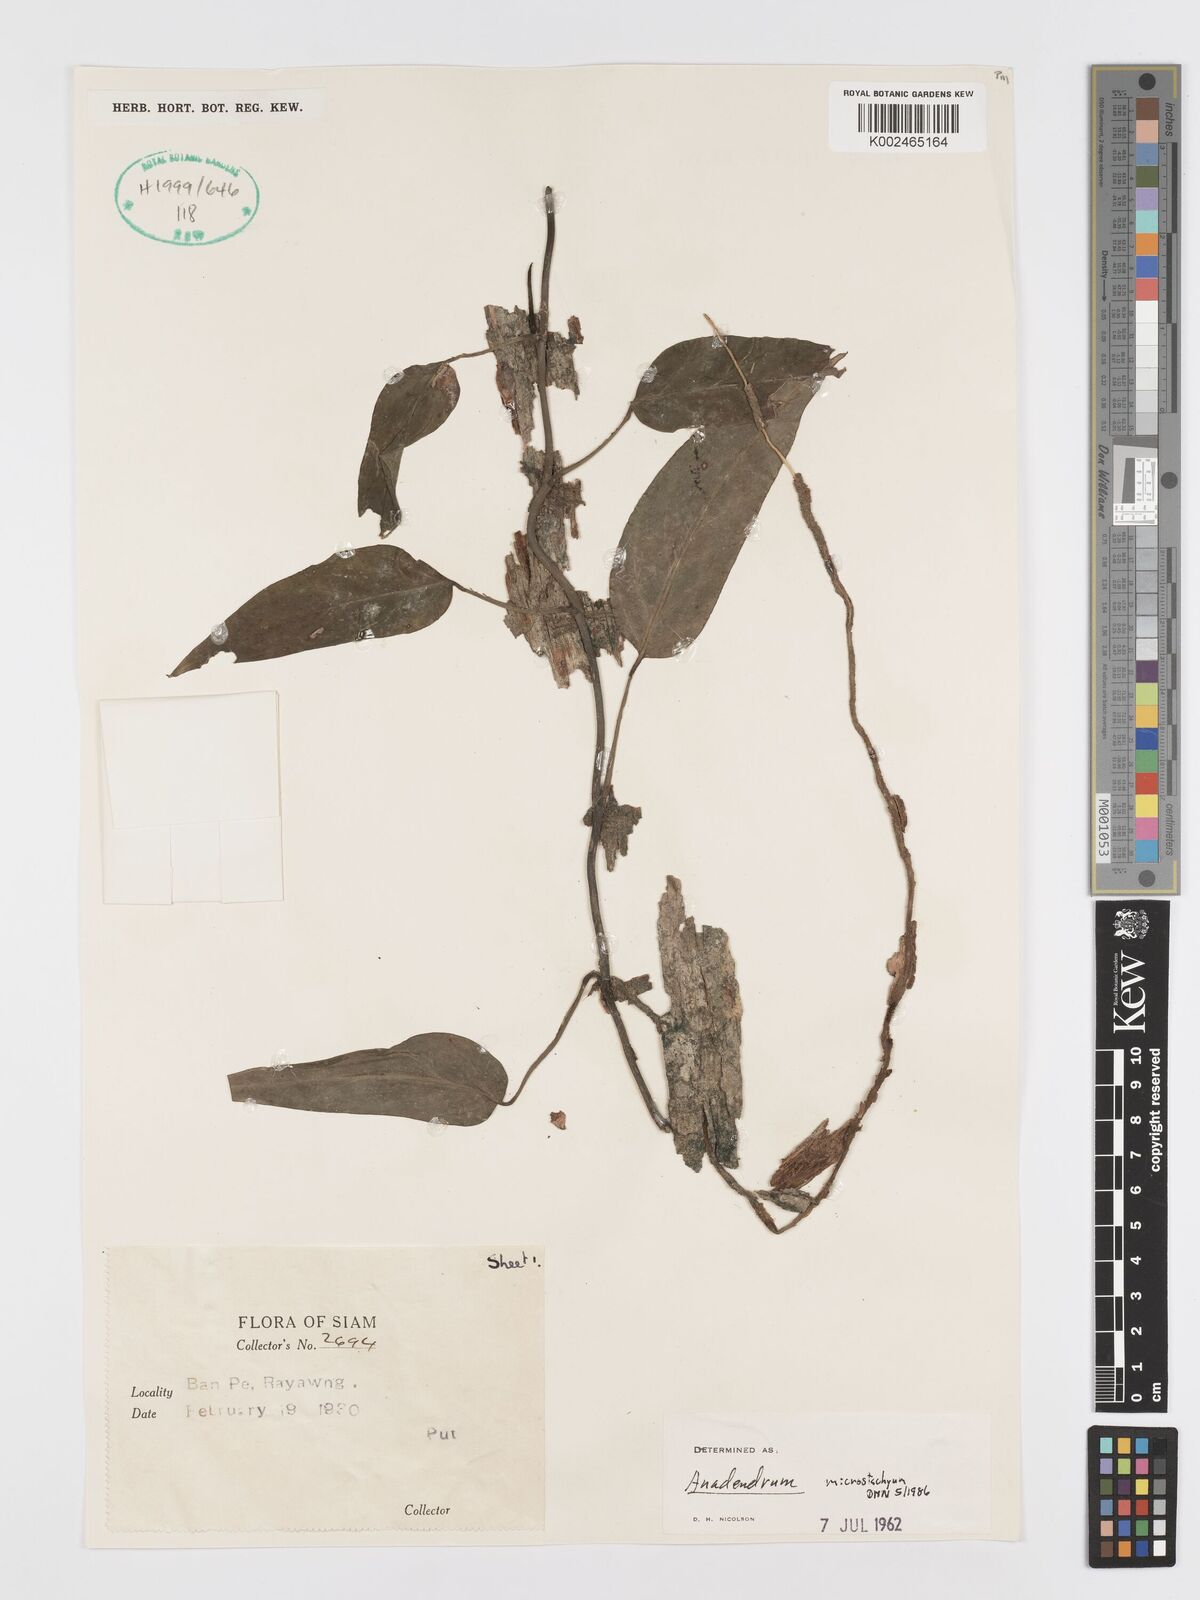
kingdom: Plantae
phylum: Tracheophyta
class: Liliopsida
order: Alismatales
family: Araceae
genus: Anadendrum
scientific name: Anadendrum microstachyum
